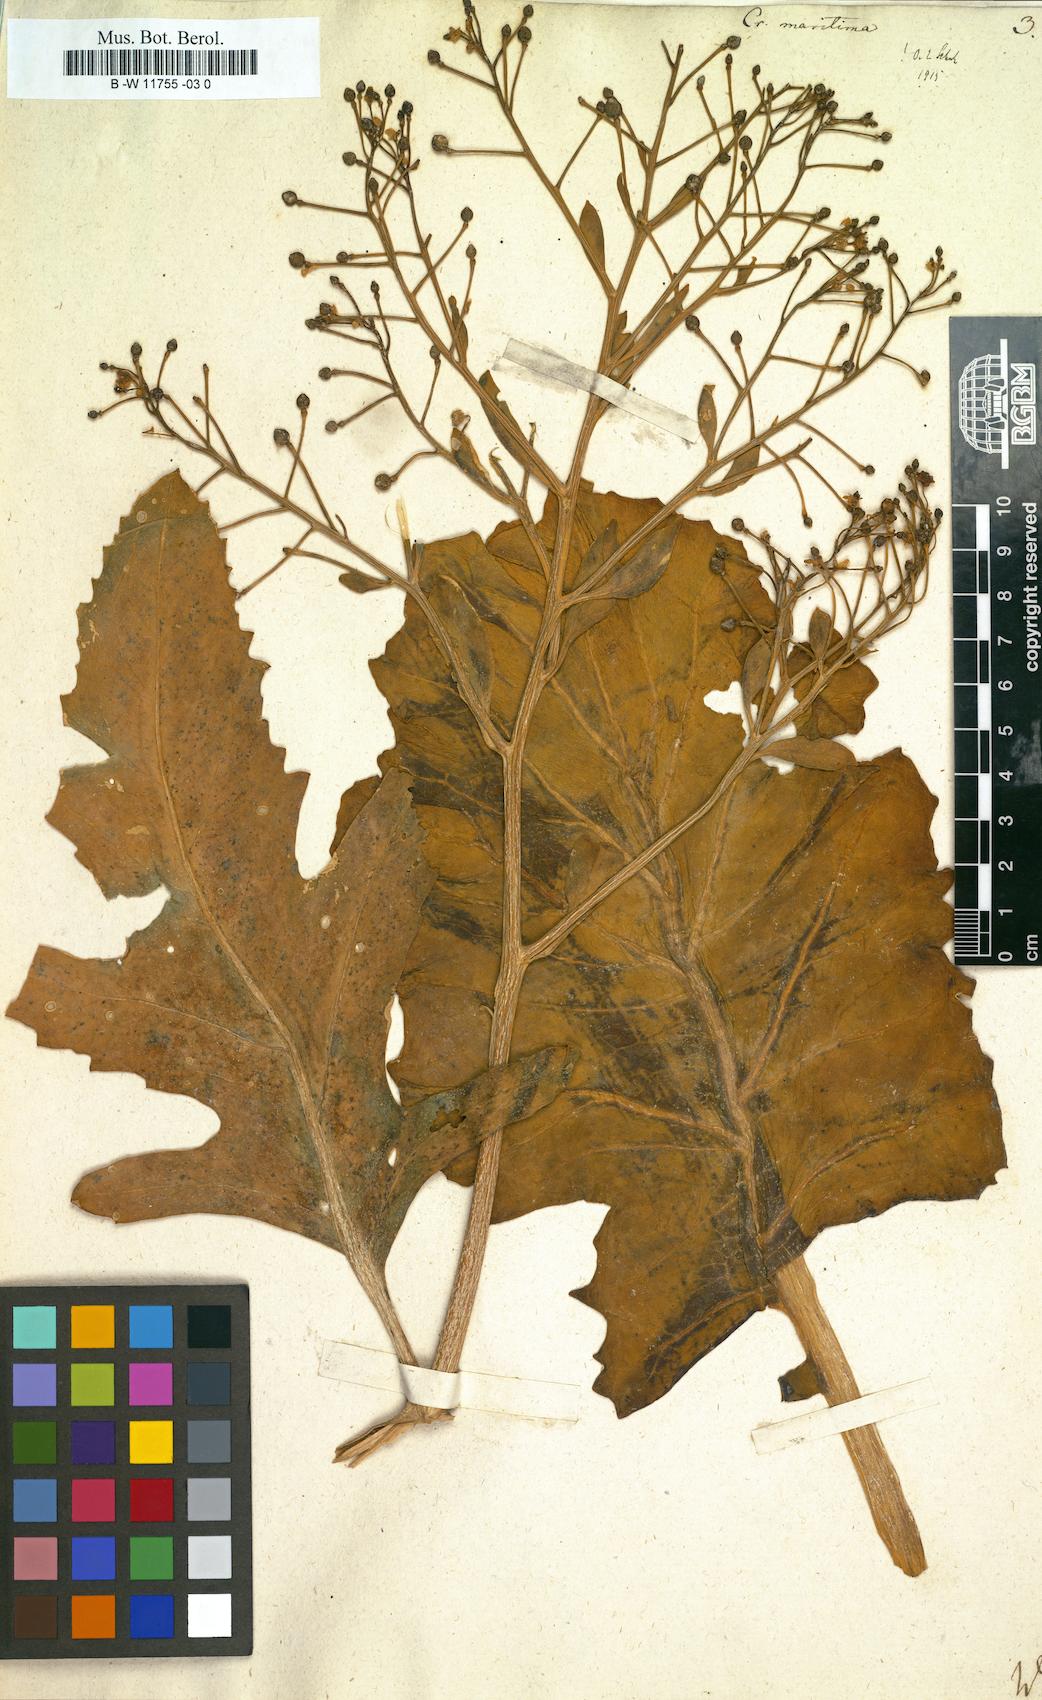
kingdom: Plantae
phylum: Tracheophyta
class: Magnoliopsida
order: Brassicales
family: Brassicaceae
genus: Crambe
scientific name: Crambe maritima
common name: Sea-kale
